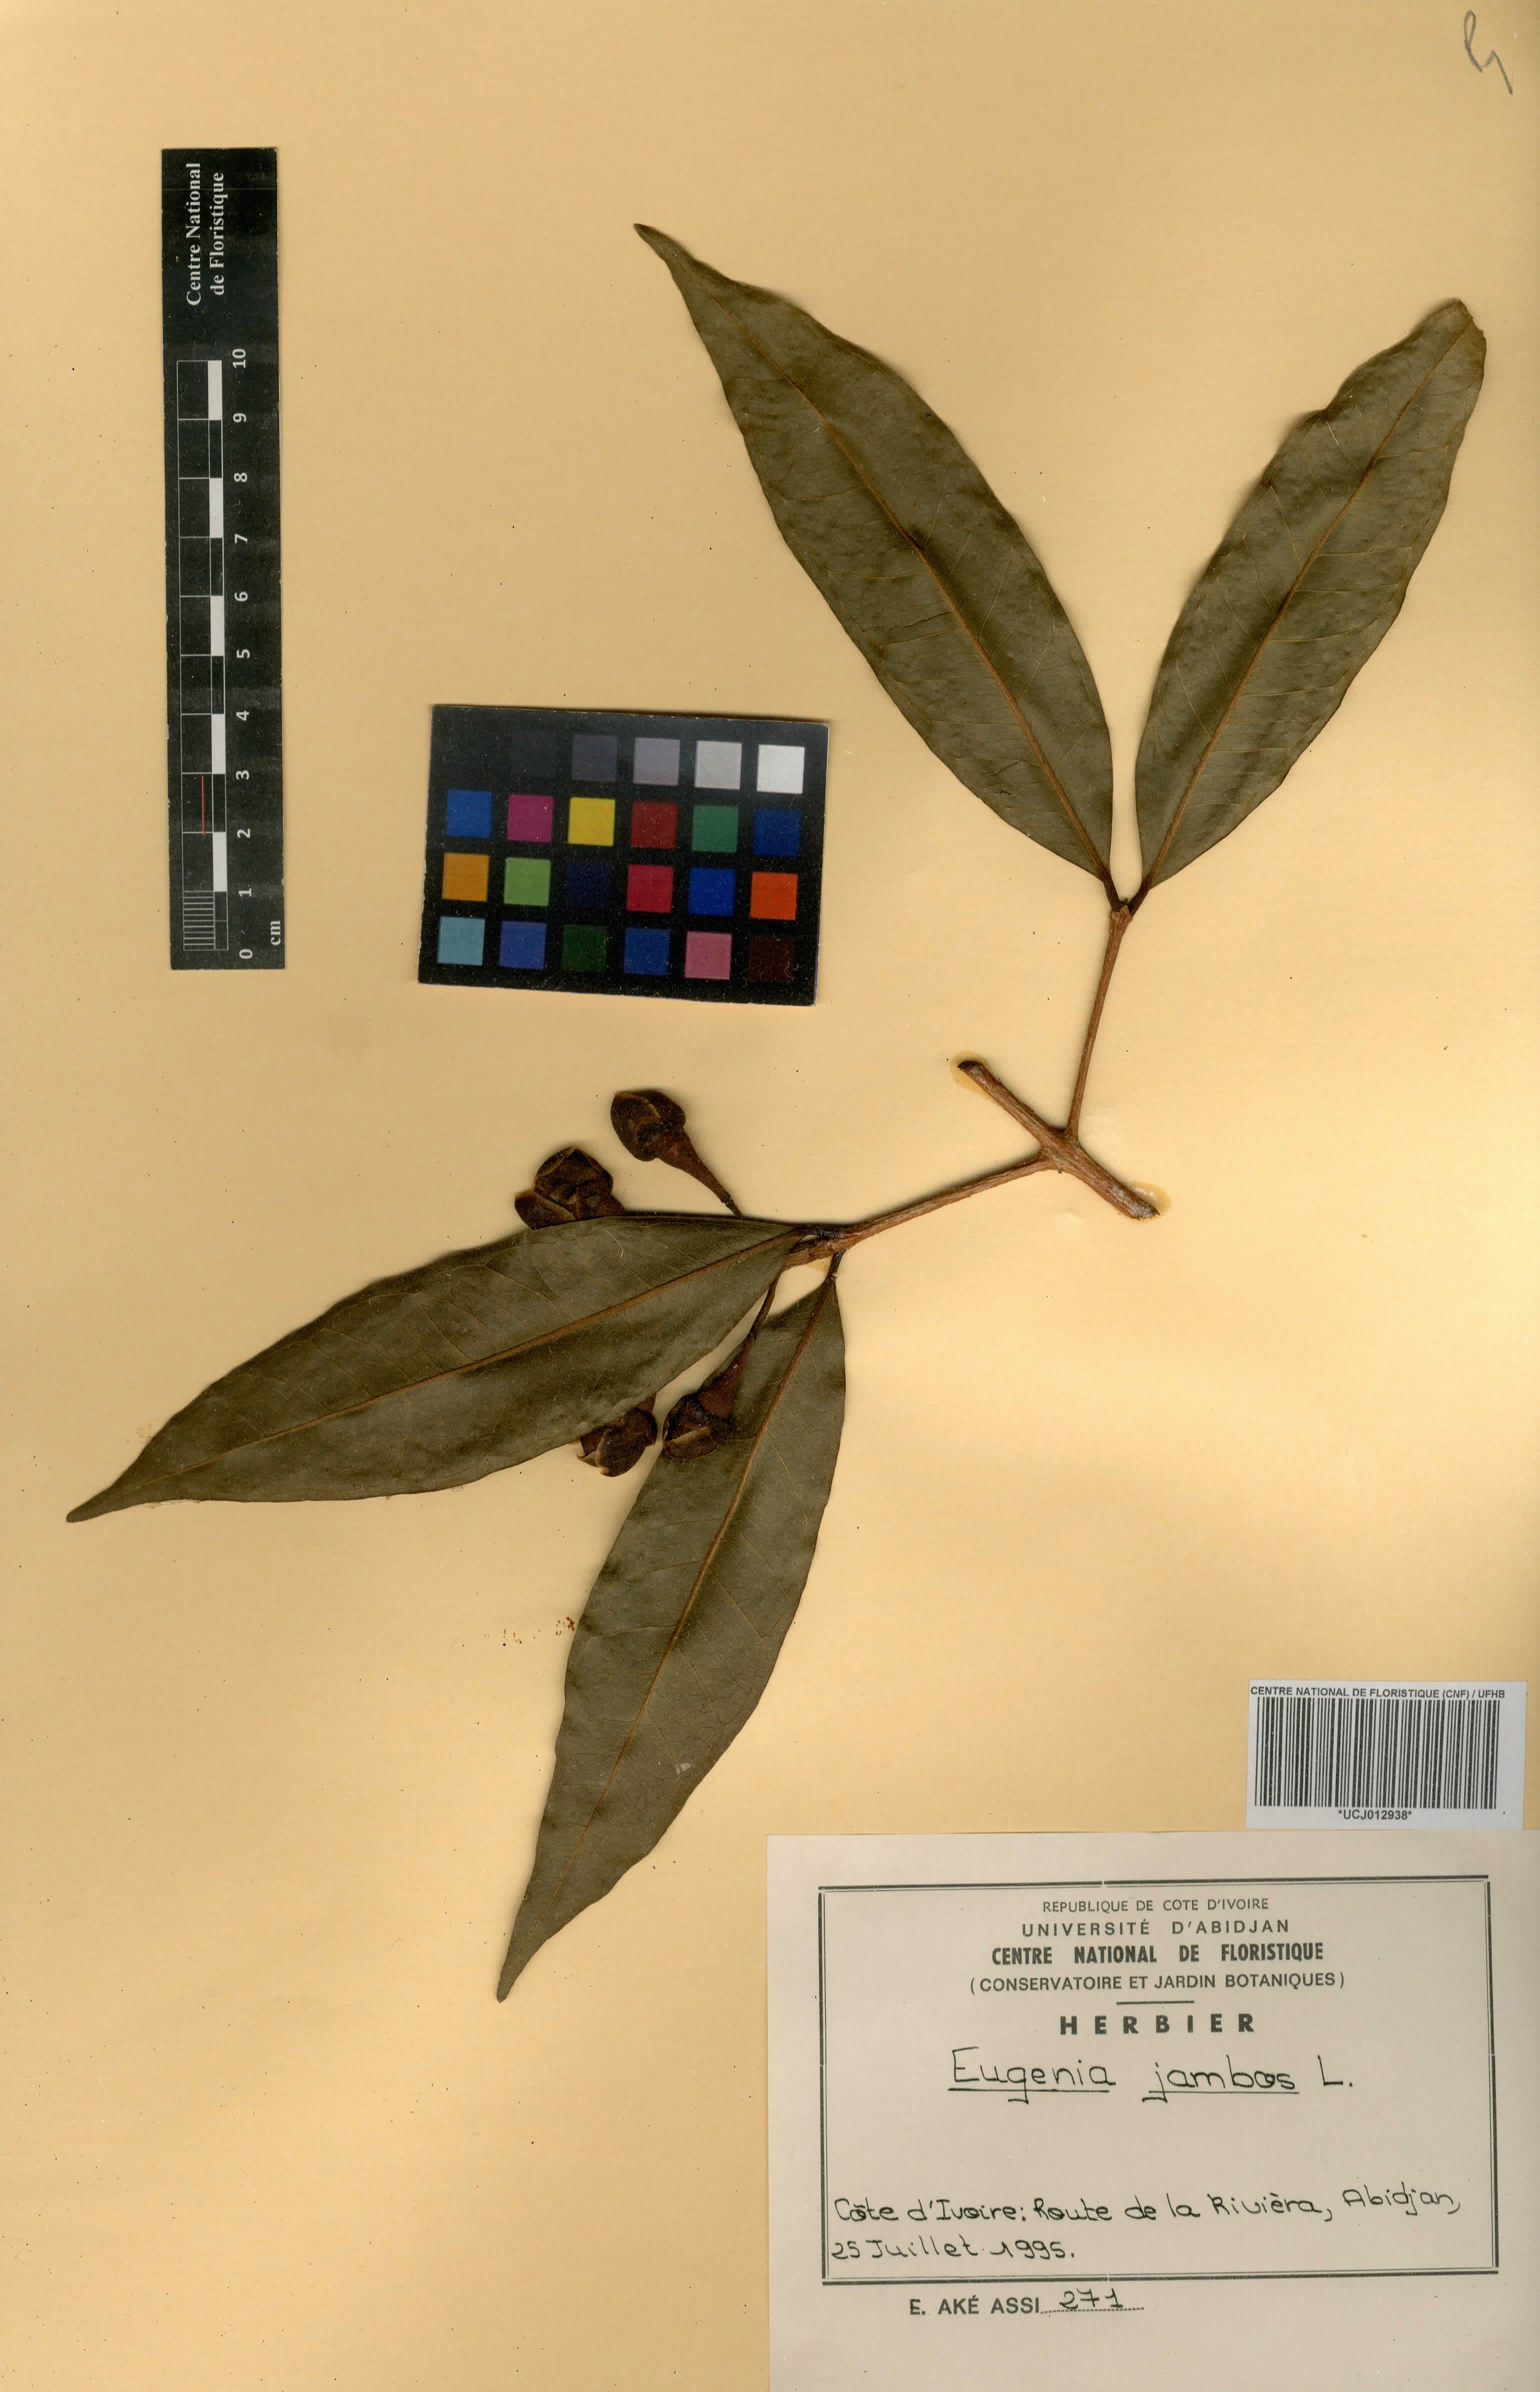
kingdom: Plantae
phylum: Tracheophyta
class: Magnoliopsida
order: Myrtales
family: Myrtaceae
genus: Eugenia
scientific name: Eugenia kalbreyeri
